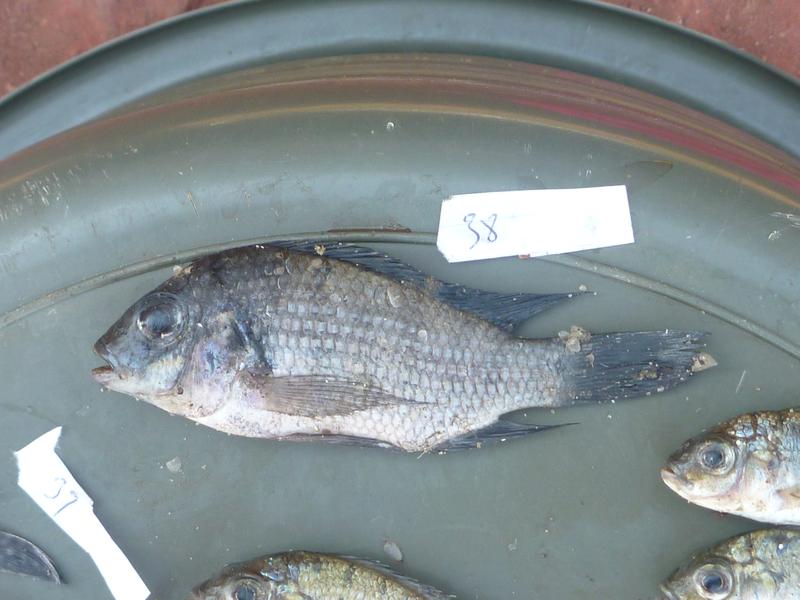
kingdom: Animalia
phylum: Chordata
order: Perciformes
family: Cichlidae
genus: Coptodon
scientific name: Coptodon rendalli
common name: Redbreast tilapia
